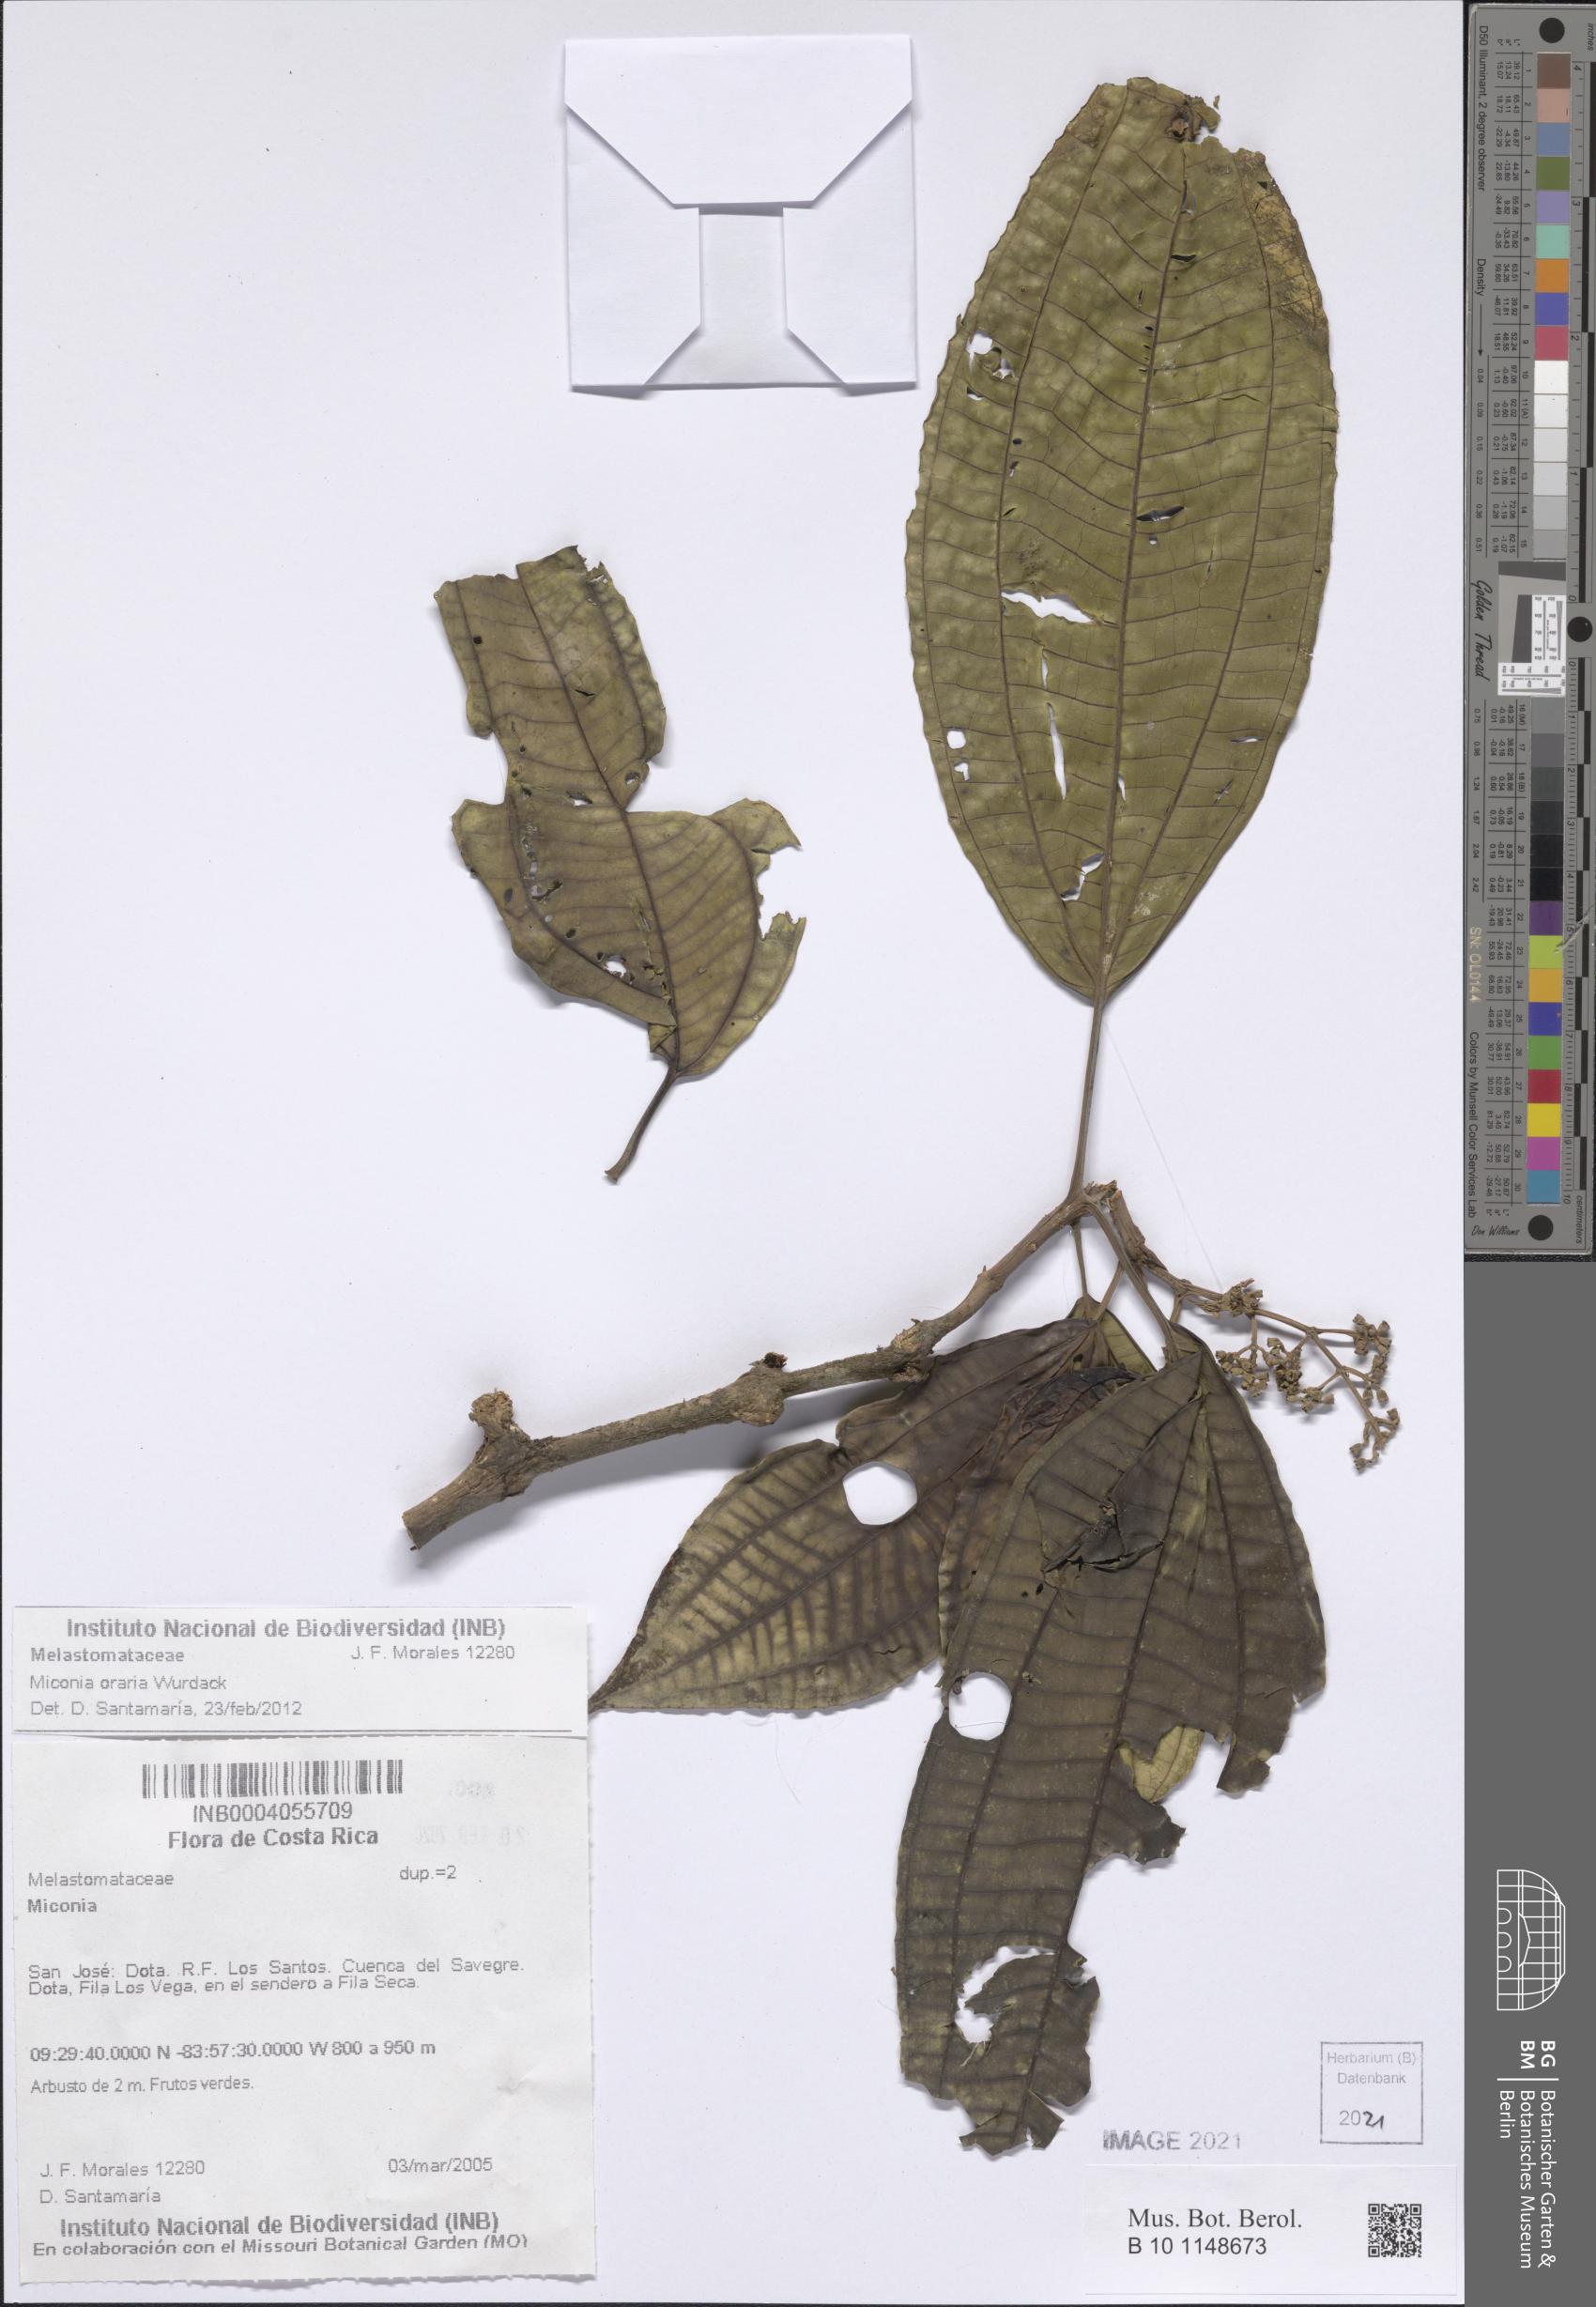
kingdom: Plantae
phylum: Tracheophyta
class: Magnoliopsida
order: Myrtales
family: Melastomataceae
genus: Miconia
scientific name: Miconia oraria
